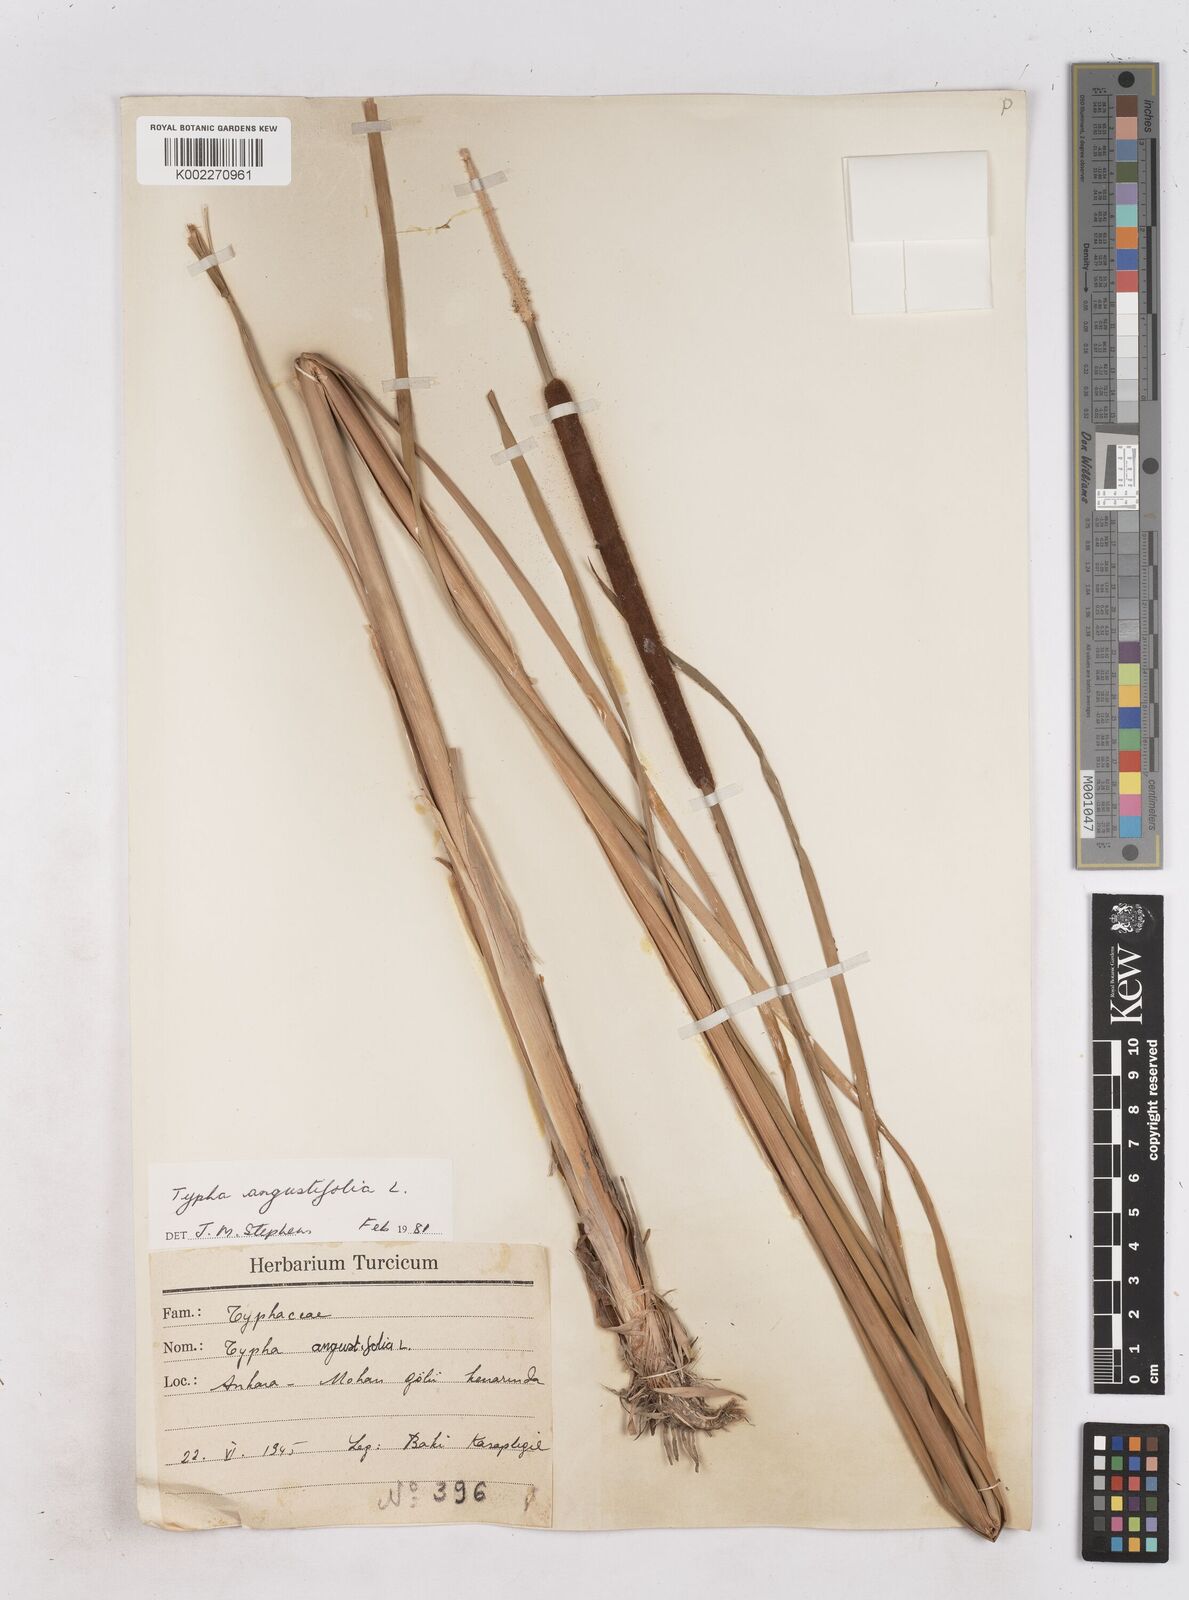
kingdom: Plantae
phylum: Tracheophyta
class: Liliopsida
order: Poales
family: Typhaceae
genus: Typha
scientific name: Typha angustifolia
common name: Lesser bulrush
